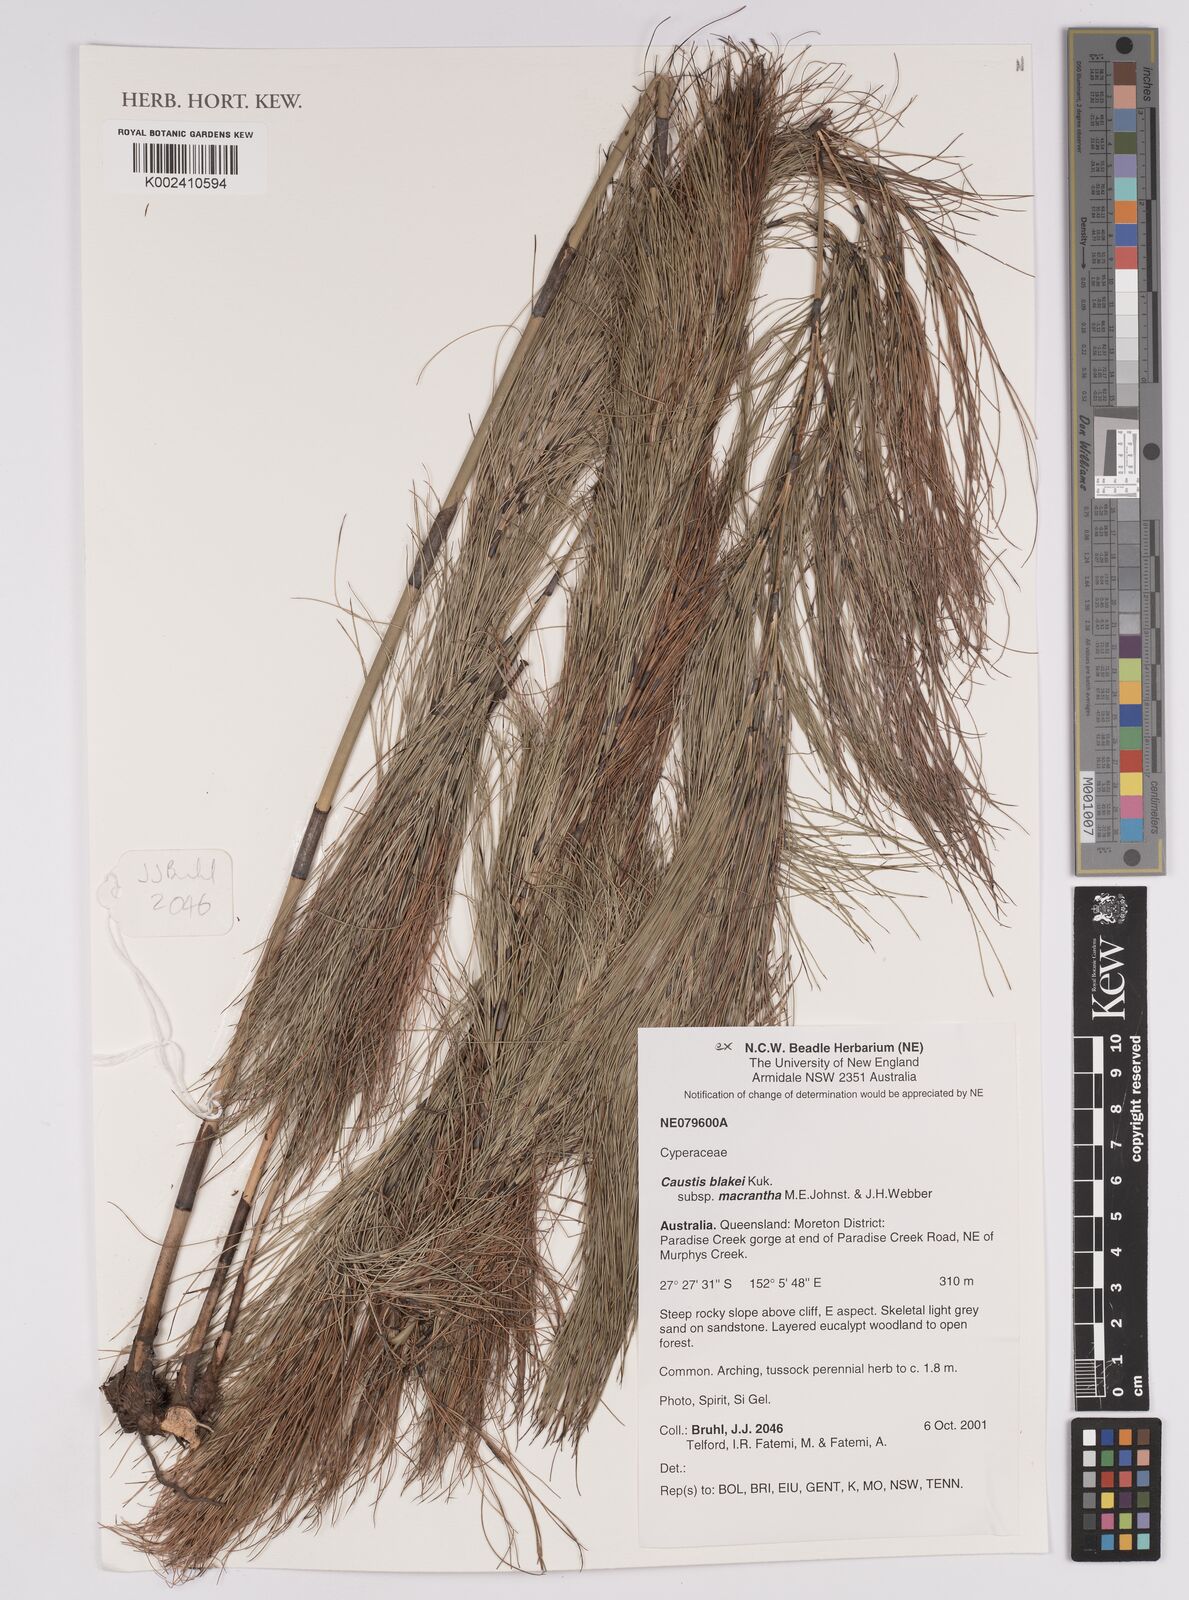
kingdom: Plantae
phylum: Tracheophyta
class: Liliopsida
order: Poales
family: Cyperaceae
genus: Caustis
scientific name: Caustis blakei
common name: Foxtail-fern
